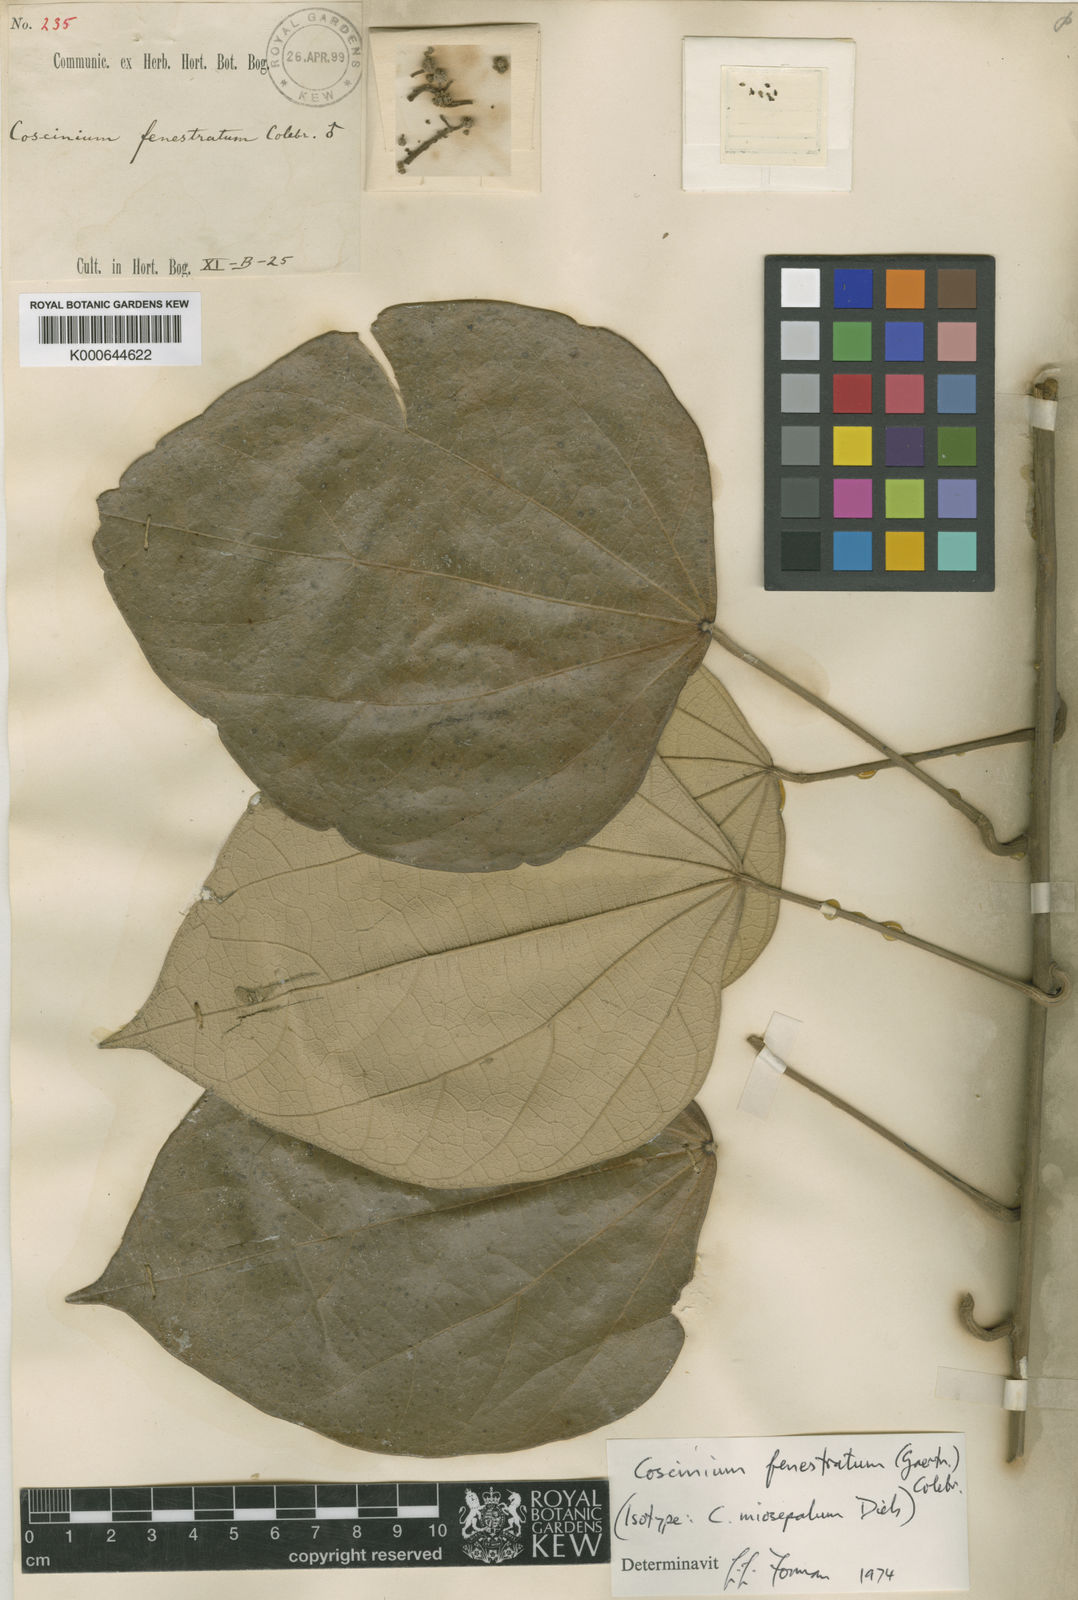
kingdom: Plantae
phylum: Tracheophyta
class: Magnoliopsida
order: Ranunculales
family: Menispermaceae
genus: Coscinium
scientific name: Coscinium fenestratum
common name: False calumba
